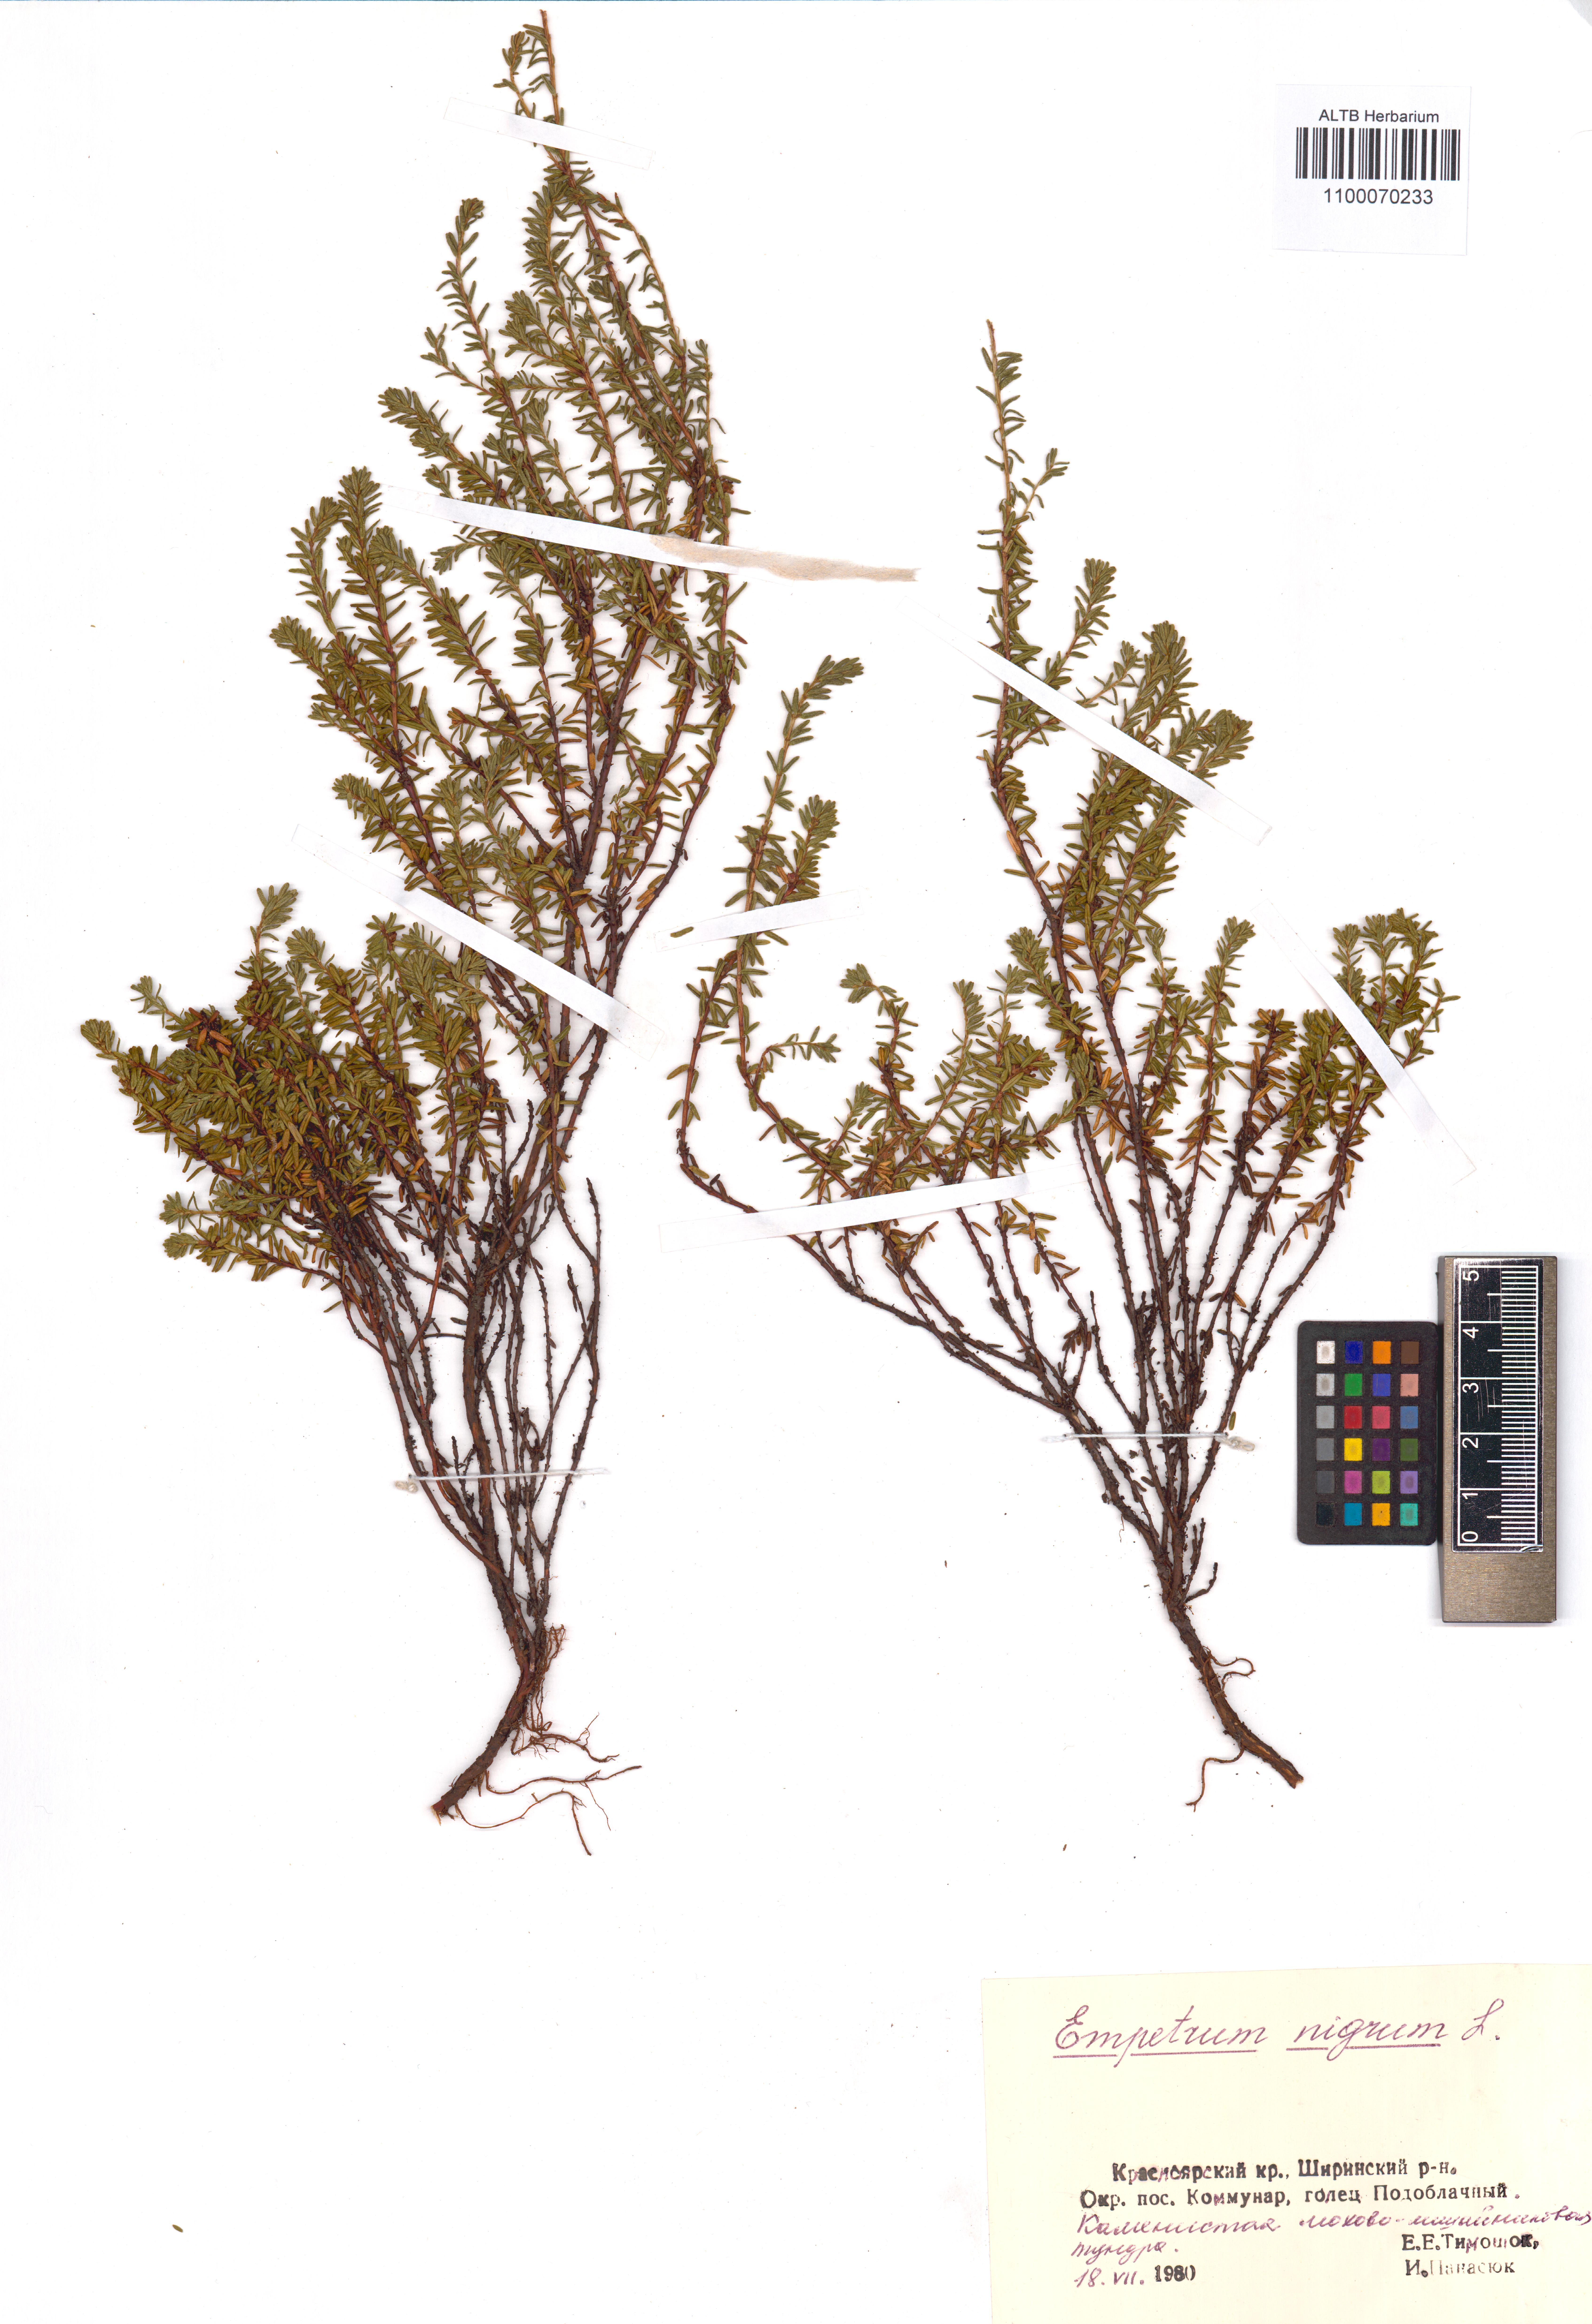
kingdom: Plantae
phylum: Tracheophyta
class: Magnoliopsida
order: Ericales
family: Ericaceae
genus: Empetrum
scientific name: Empetrum nigrum
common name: Black crowberry
